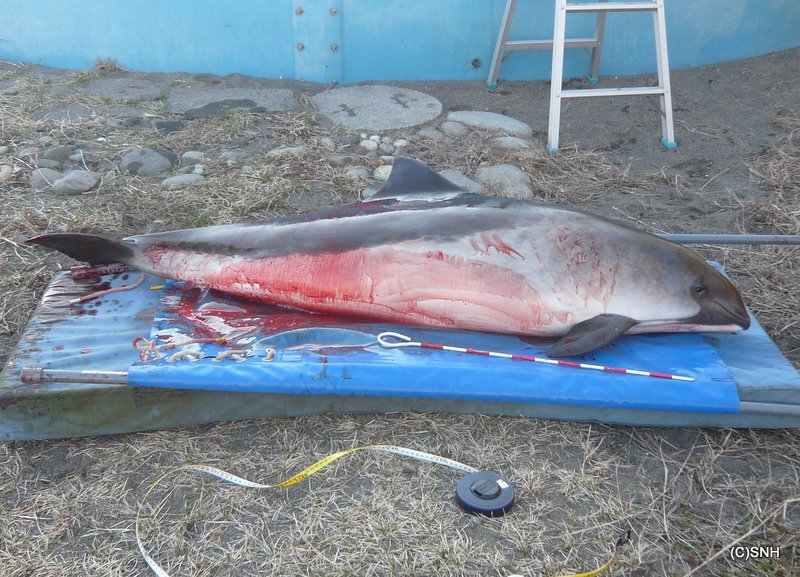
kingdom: Animalia
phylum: Chordata
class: Mammalia
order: Cetacea
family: Phocoenidae
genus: Phocoena
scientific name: Phocoena phocoena
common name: Harbour porpoise
